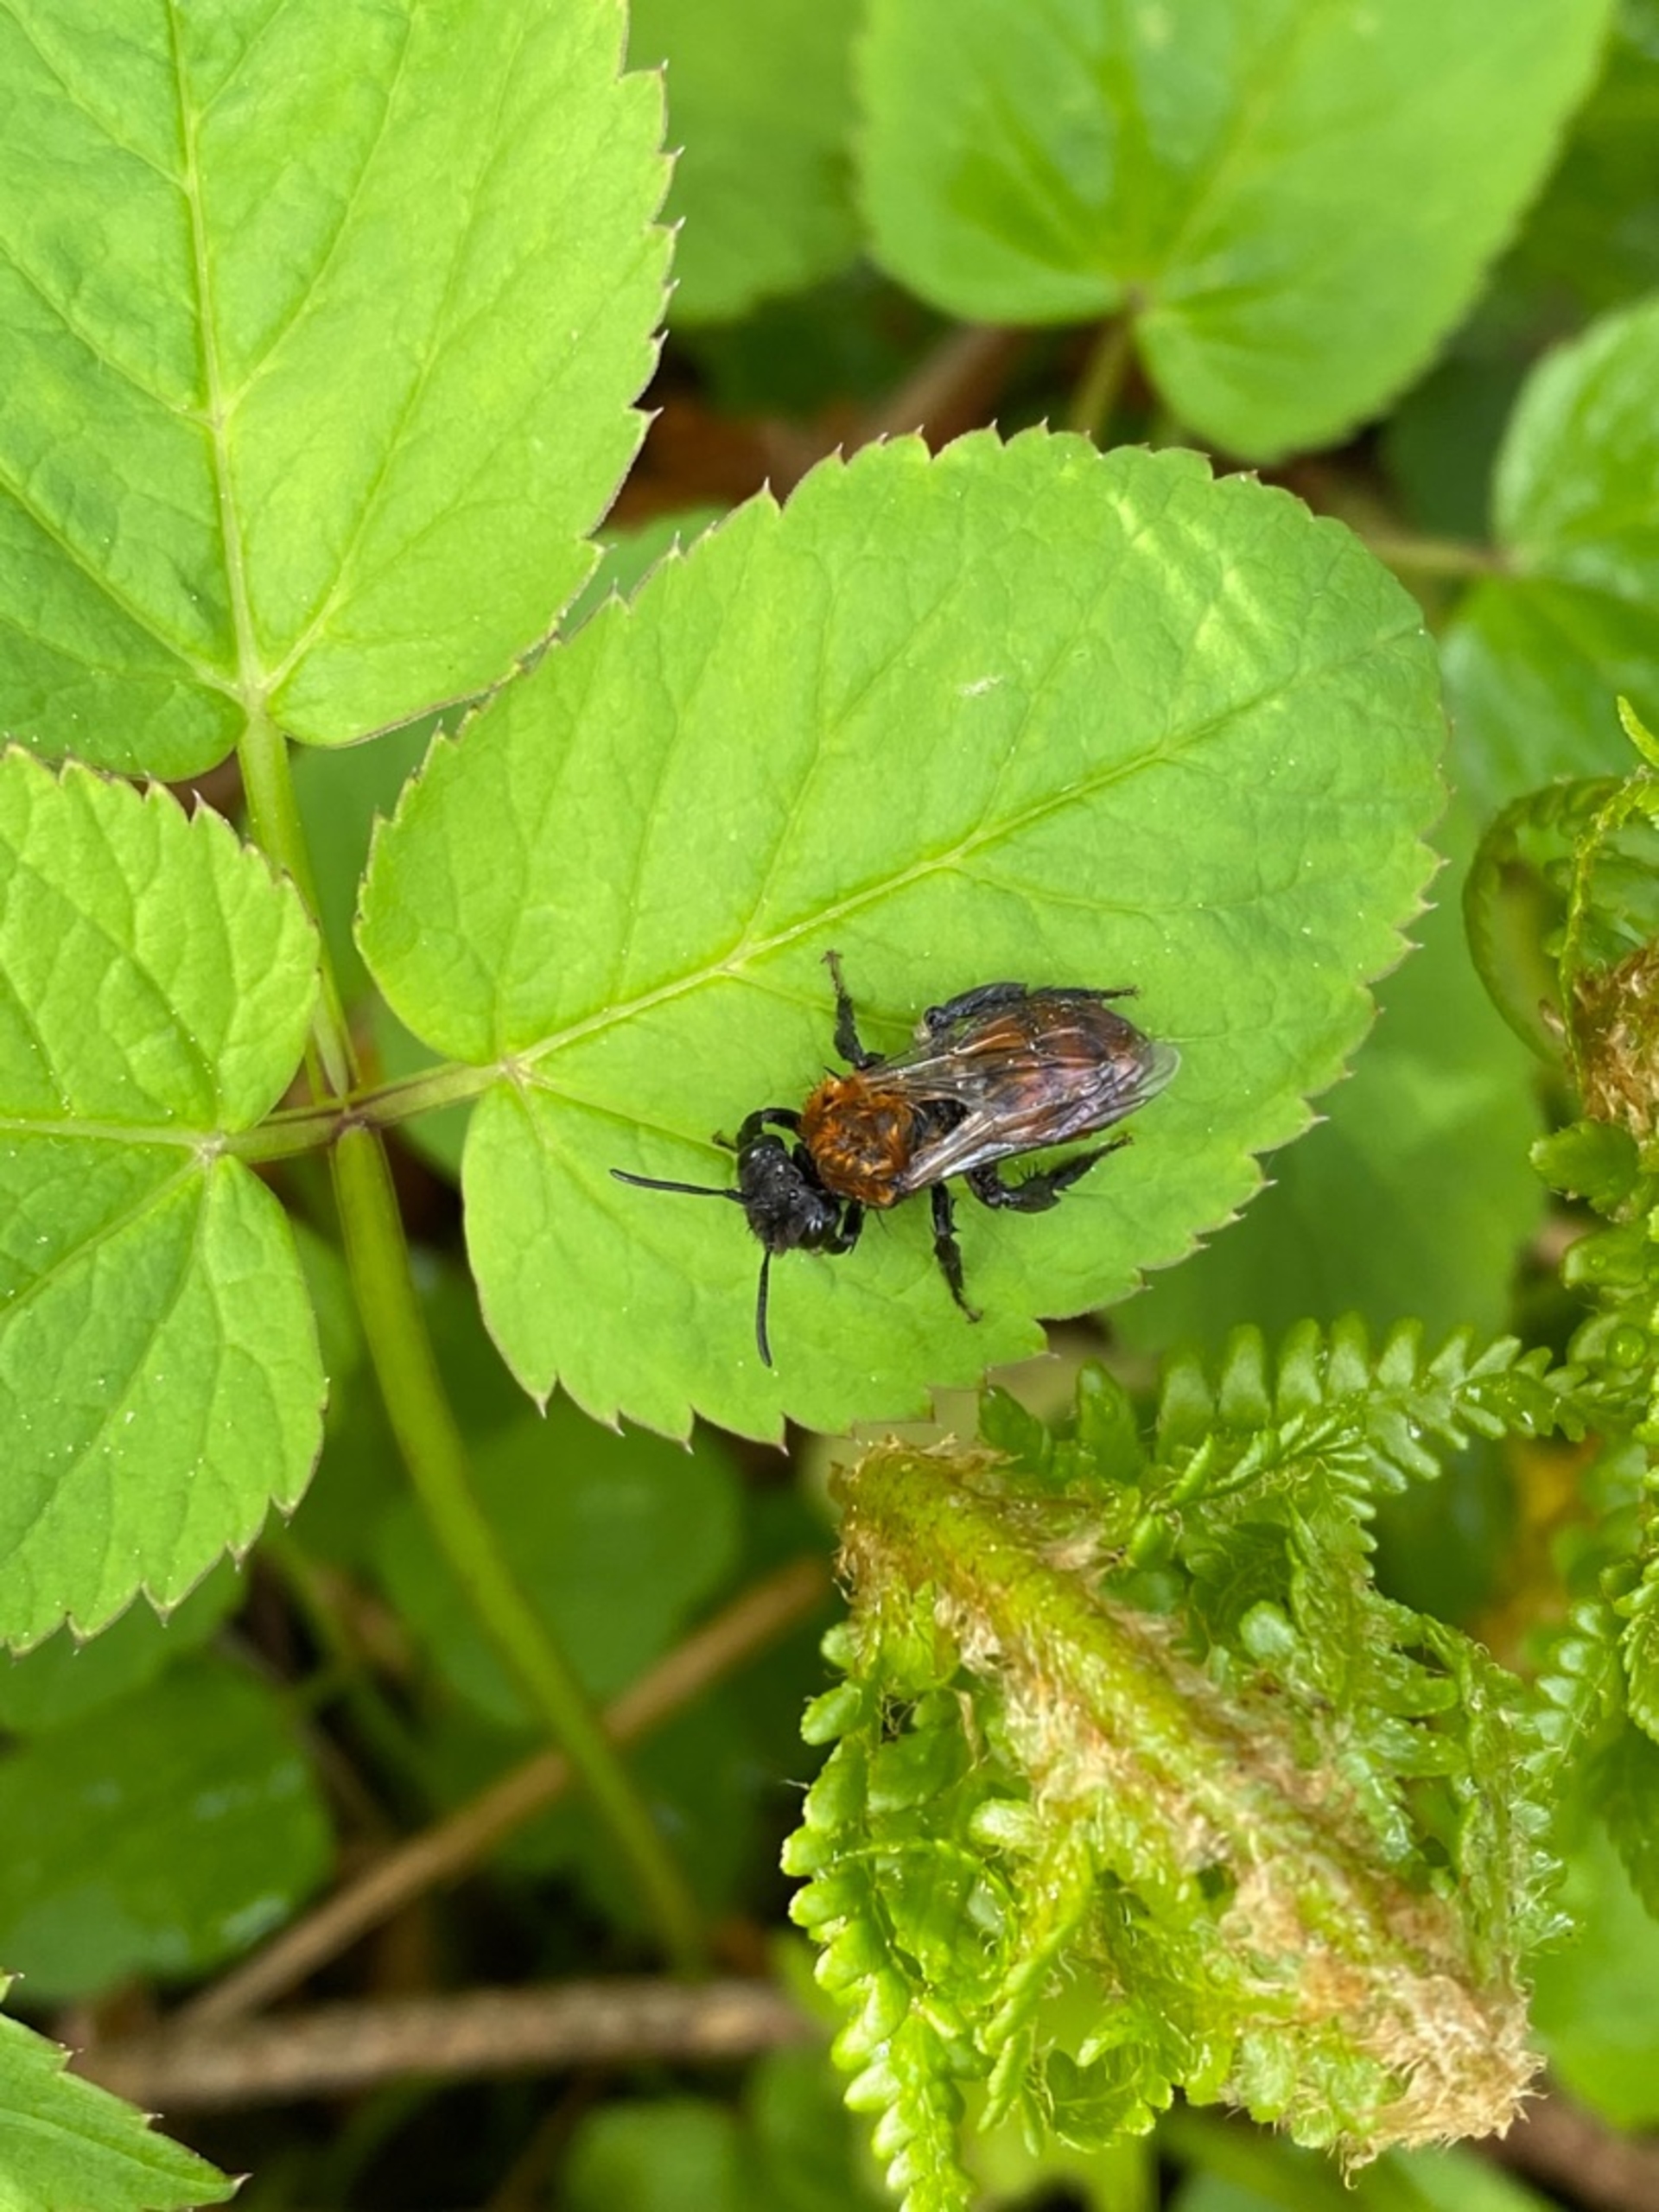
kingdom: Animalia
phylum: Arthropoda
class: Insecta
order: Hymenoptera
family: Andrenidae
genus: Andrena
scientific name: Andrena
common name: Jordbier
